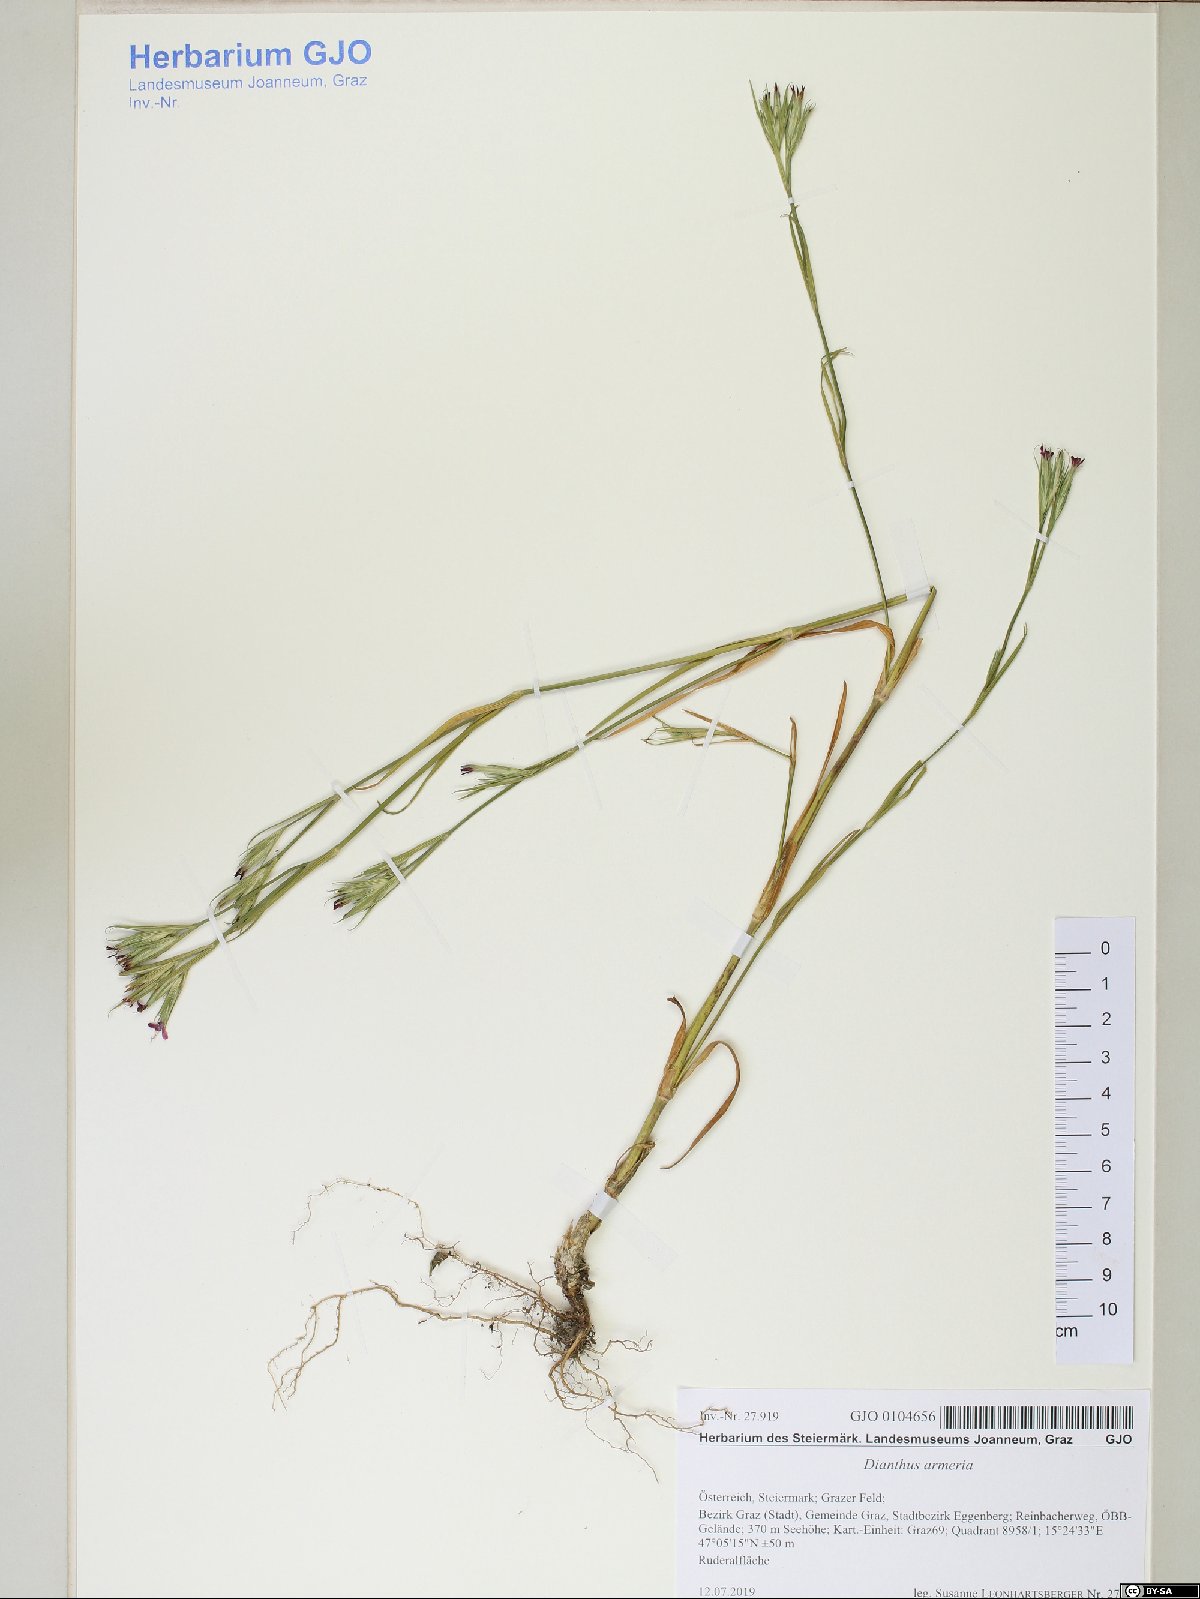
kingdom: Plantae
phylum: Tracheophyta
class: Magnoliopsida
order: Caryophyllales
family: Caryophyllaceae
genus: Dianthus
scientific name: Dianthus armeria
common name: Deptford pink
